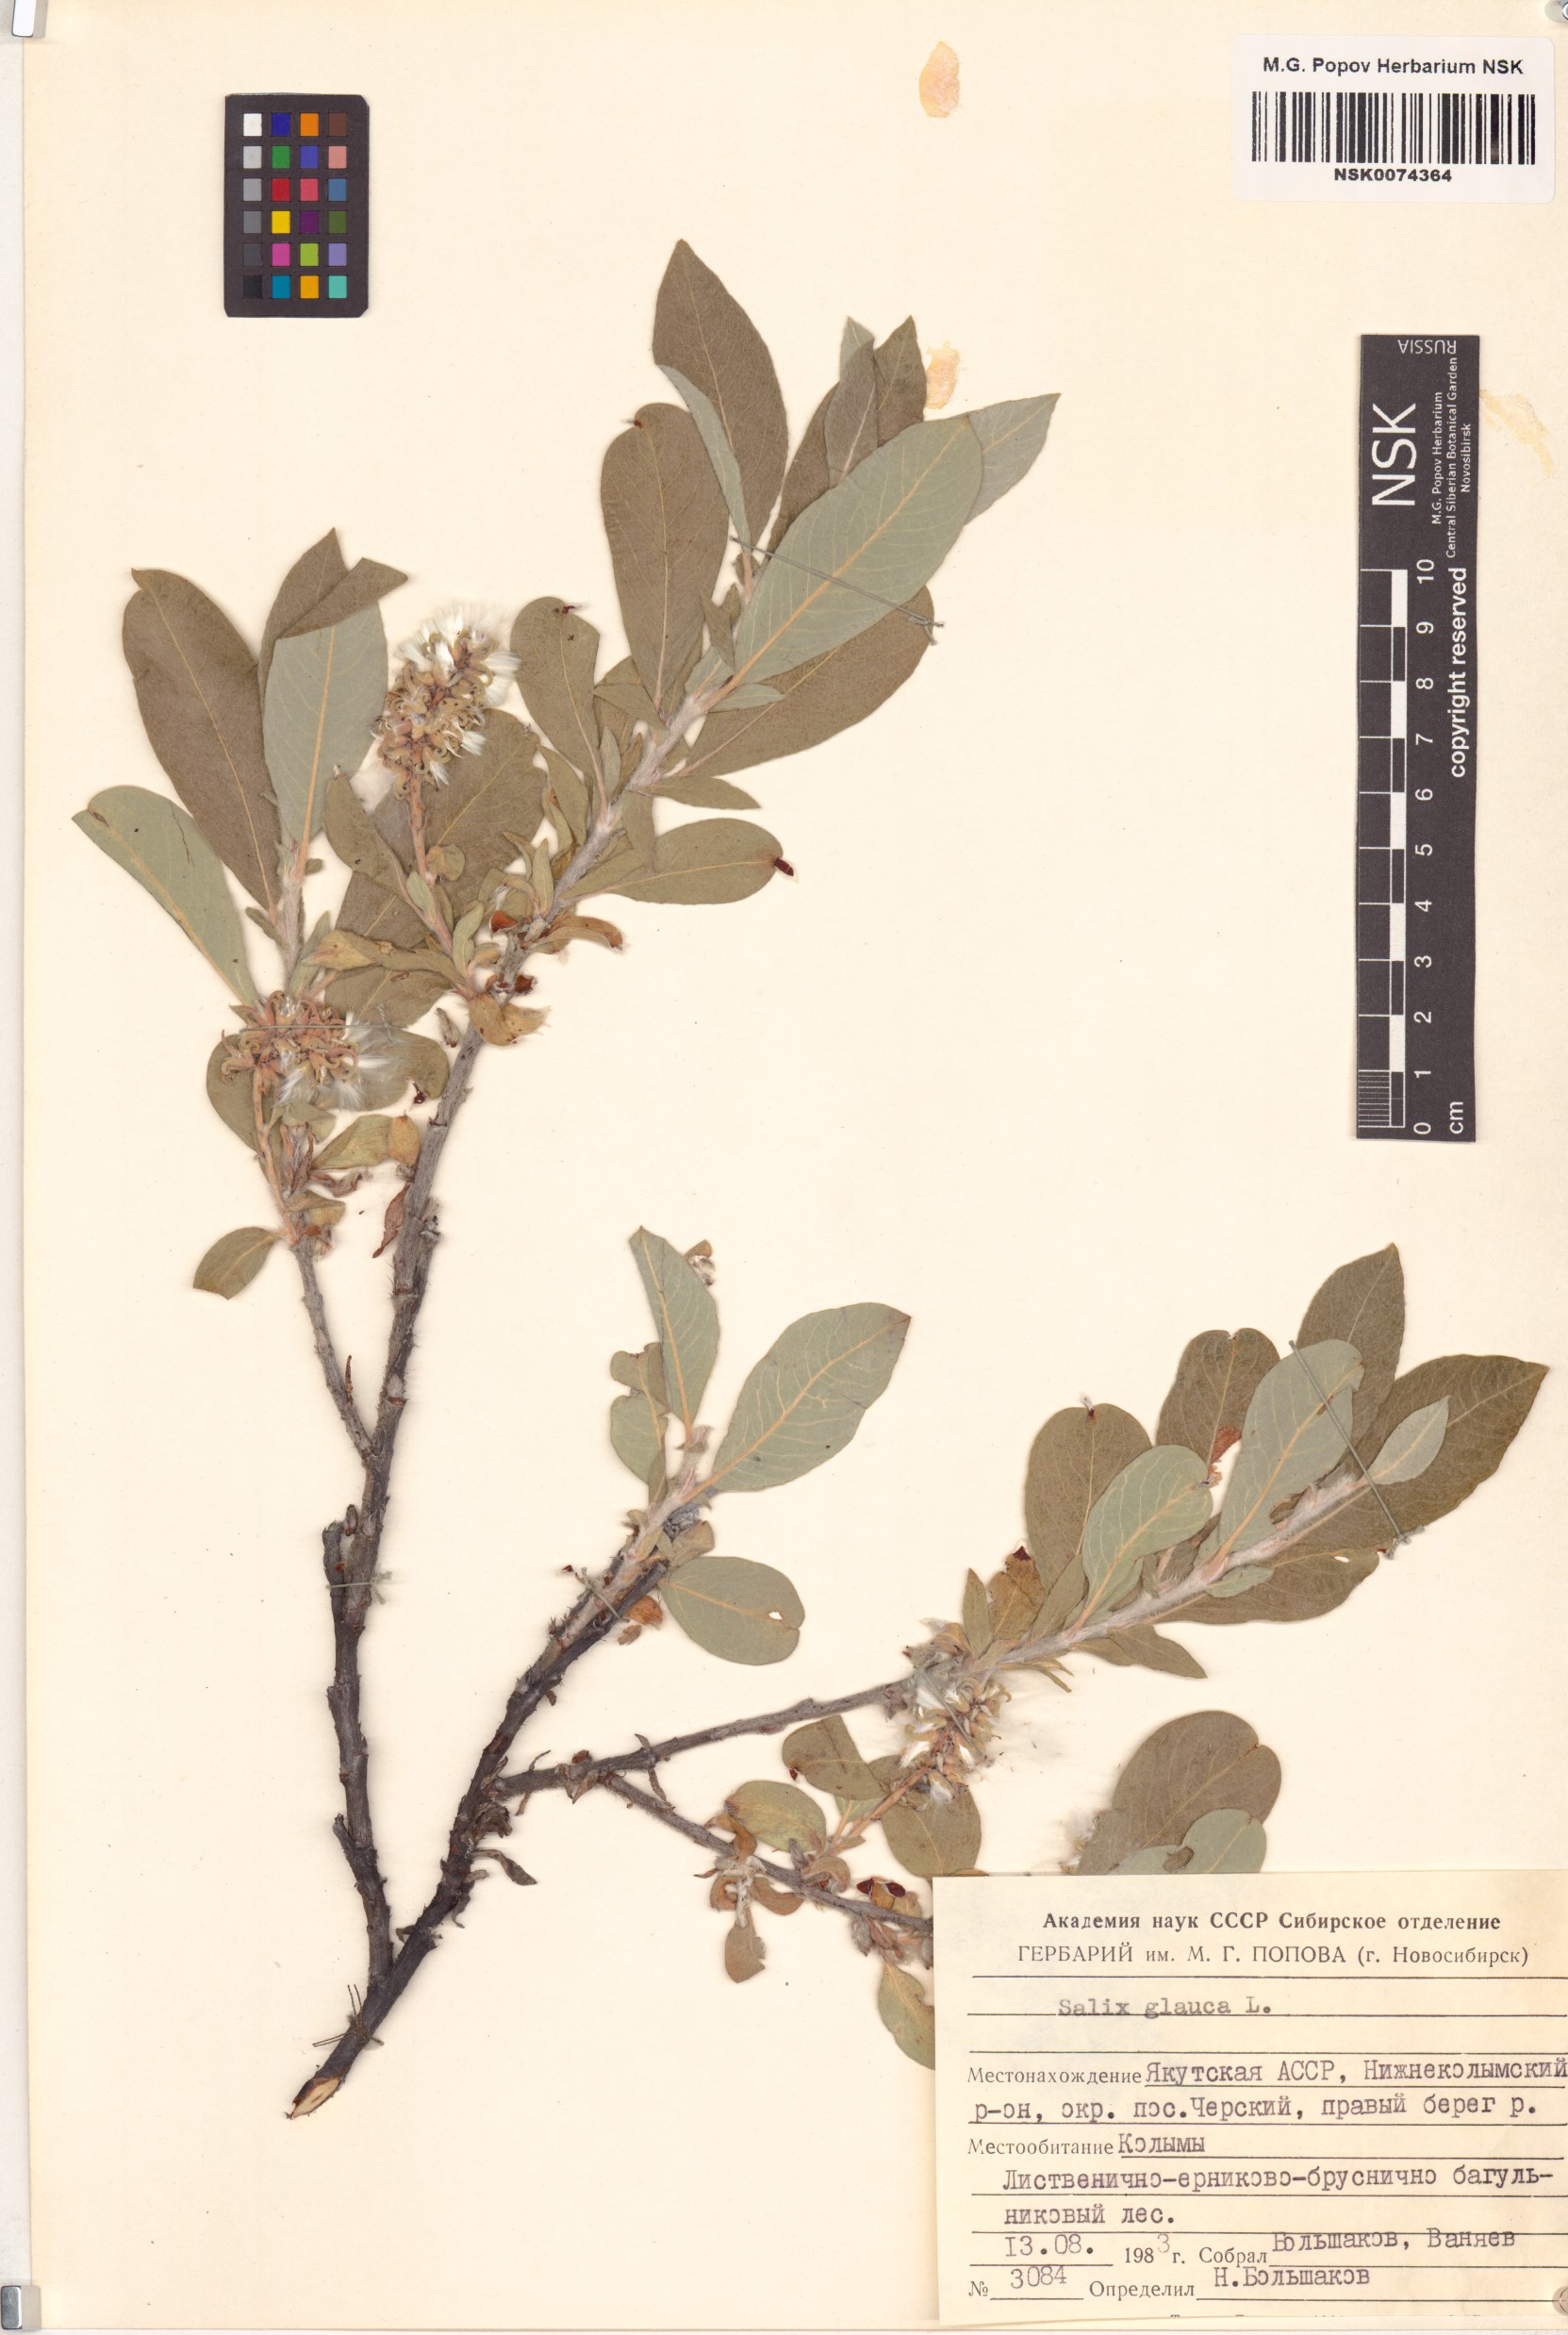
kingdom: Plantae
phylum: Tracheophyta
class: Magnoliopsida
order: Malpighiales
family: Salicaceae
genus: Salix
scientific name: Salix glauca
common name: Glaucous willow
